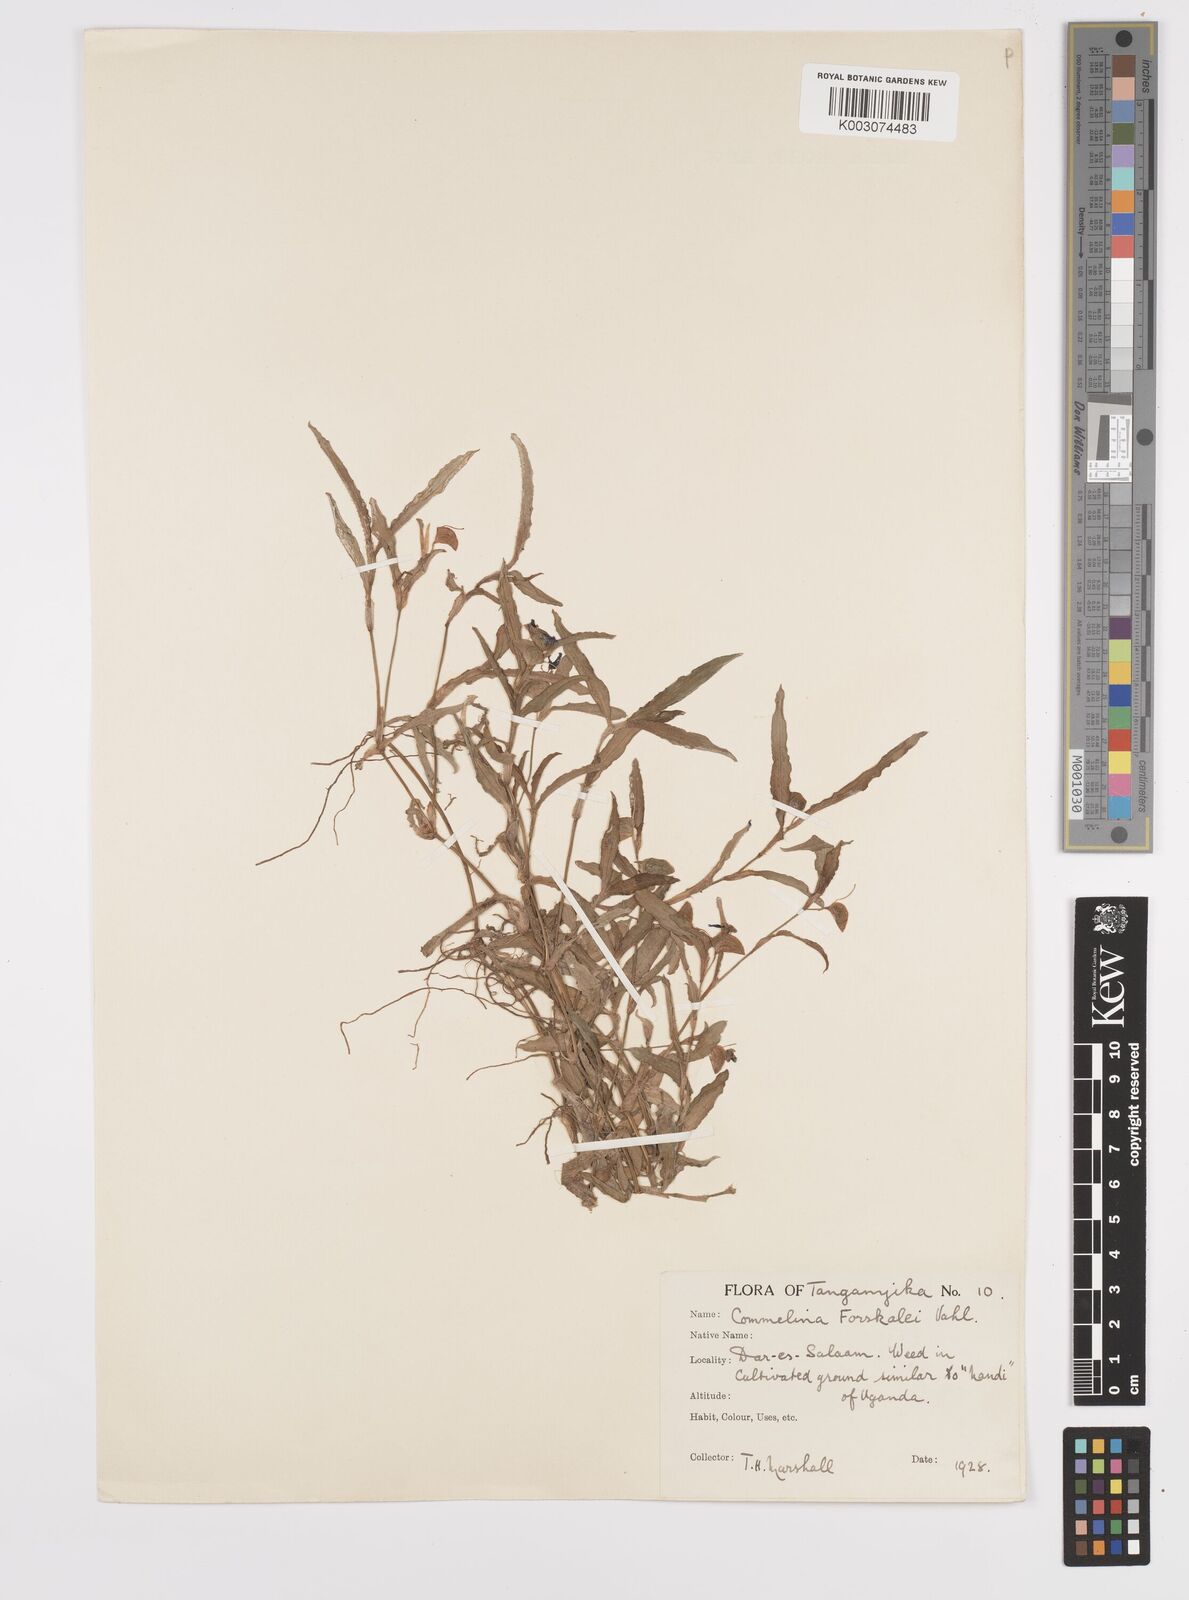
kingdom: Plantae
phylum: Tracheophyta
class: Liliopsida
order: Commelinales
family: Commelinaceae
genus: Commelina
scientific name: Commelina
